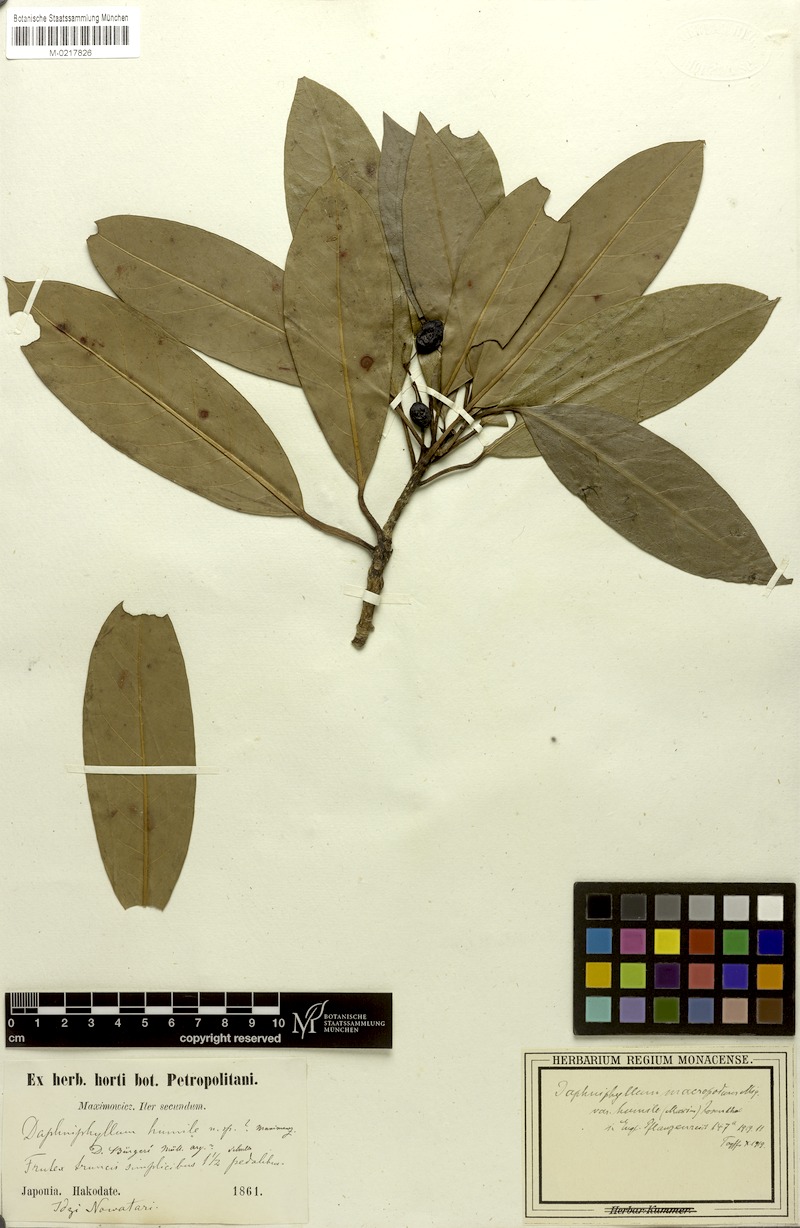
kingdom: Plantae
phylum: Tracheophyta
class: Magnoliopsida
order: Saxifragales
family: Daphniphyllaceae
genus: Daphniphyllum
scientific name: Daphniphyllum macropodum
